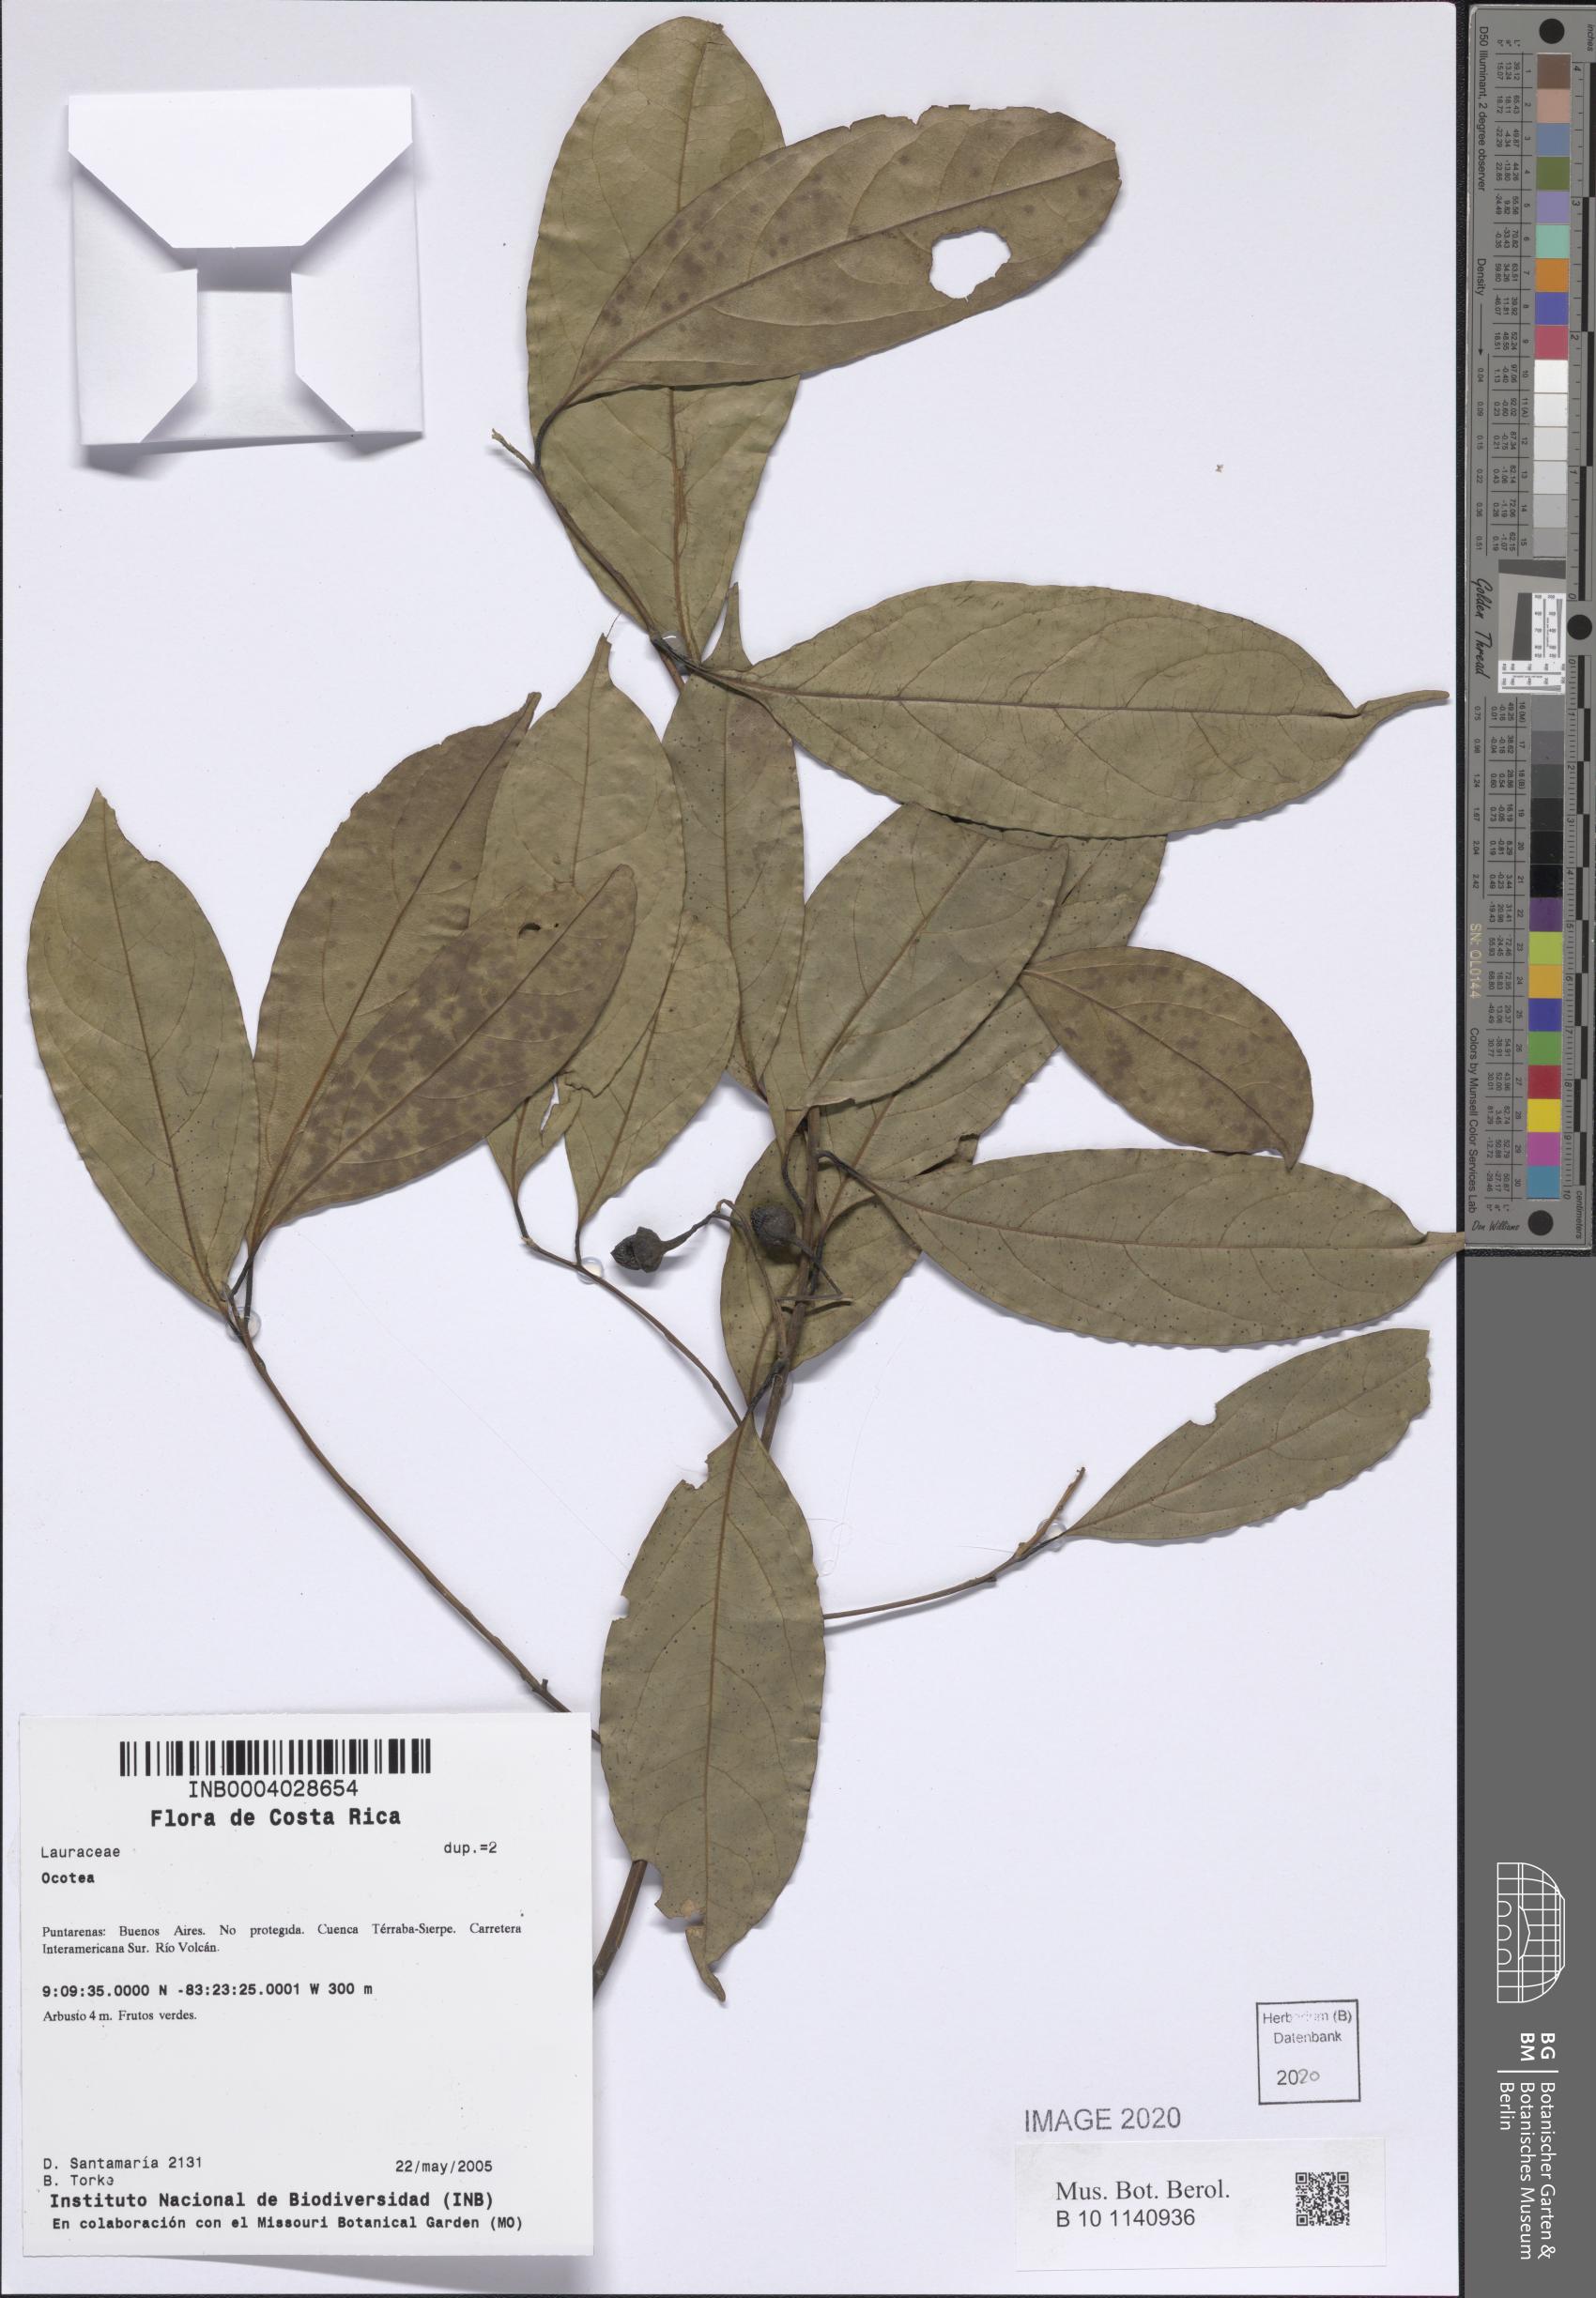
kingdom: Plantae
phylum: Tracheophyta
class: Magnoliopsida
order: Laurales
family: Lauraceae
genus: Ocotea
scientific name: Ocotea
